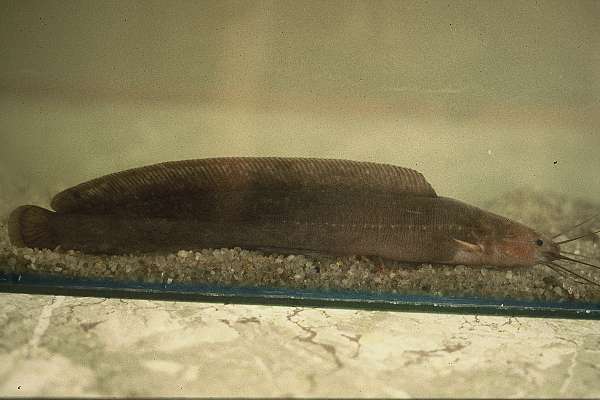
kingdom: Animalia
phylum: Chordata
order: Siluriformes
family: Clariidae
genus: Clarias
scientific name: Clarias theodorae
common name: Snake catfish
